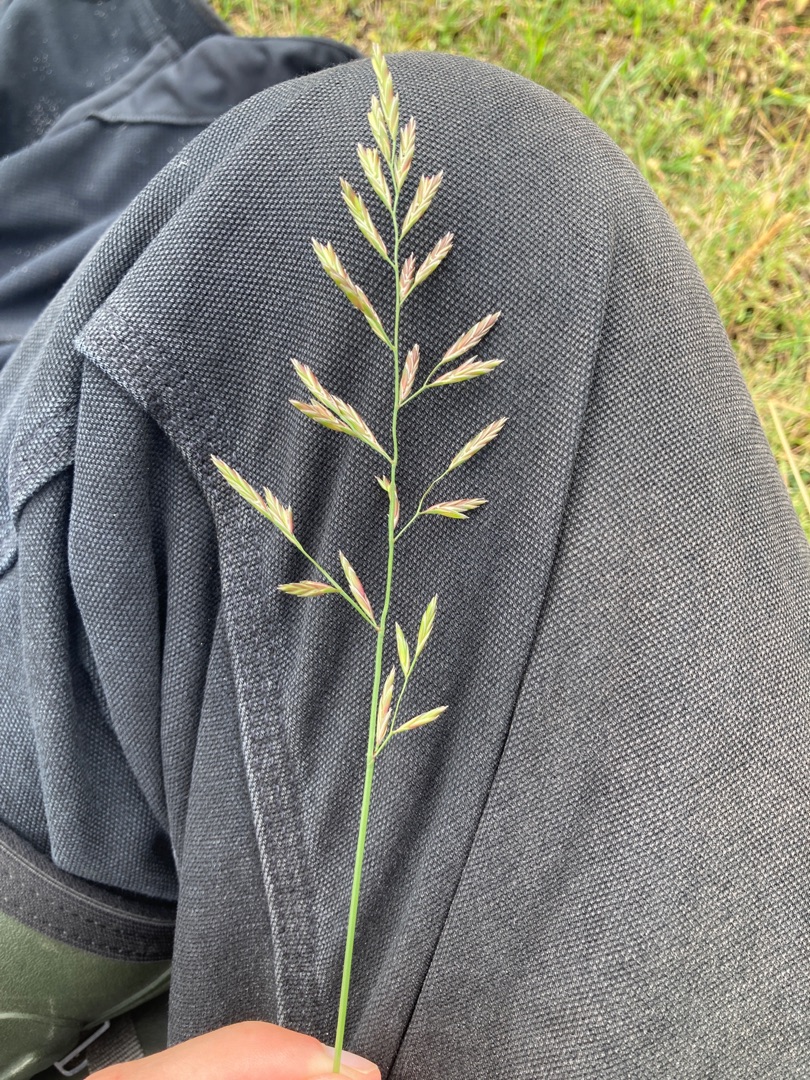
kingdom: Plantae
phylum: Tracheophyta
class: Liliopsida
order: Poales
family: Poaceae
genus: Lolium
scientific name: Lolium pratense
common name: Eng-svingel
